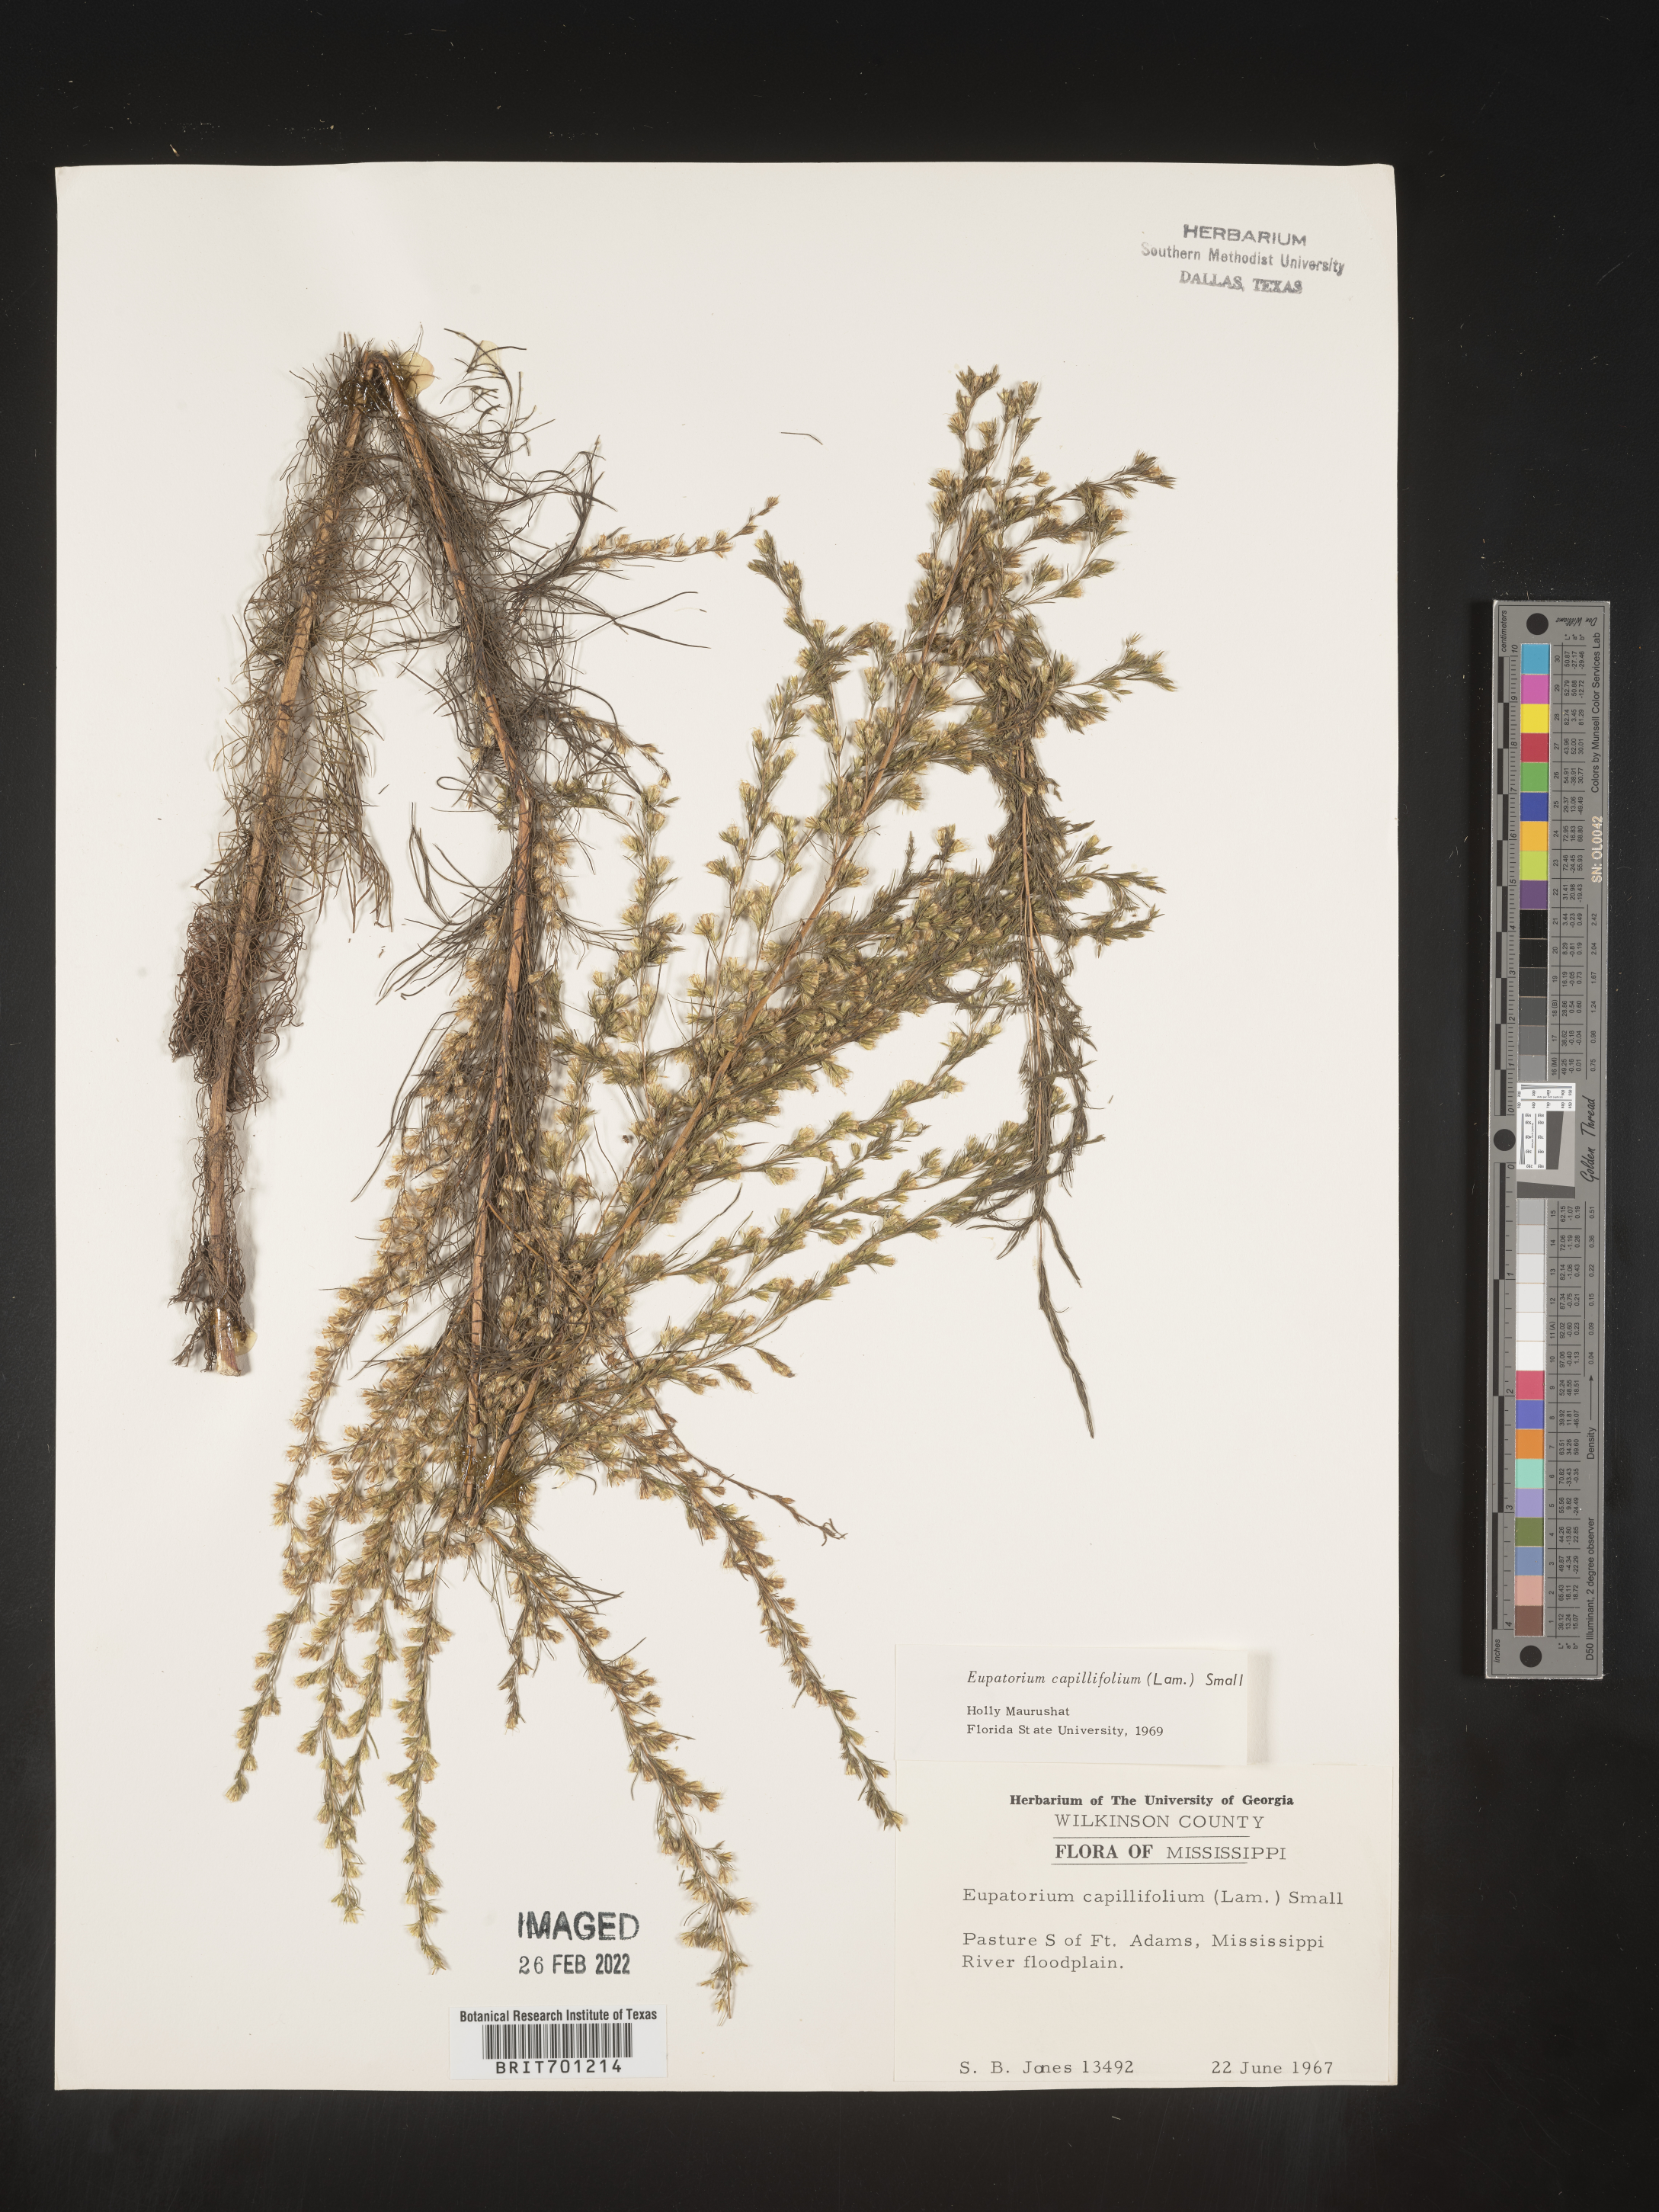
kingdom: Plantae
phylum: Tracheophyta
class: Magnoliopsida
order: Asterales
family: Asteraceae
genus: Eupatorium
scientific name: Eupatorium capillifolium
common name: Dog-fennel
